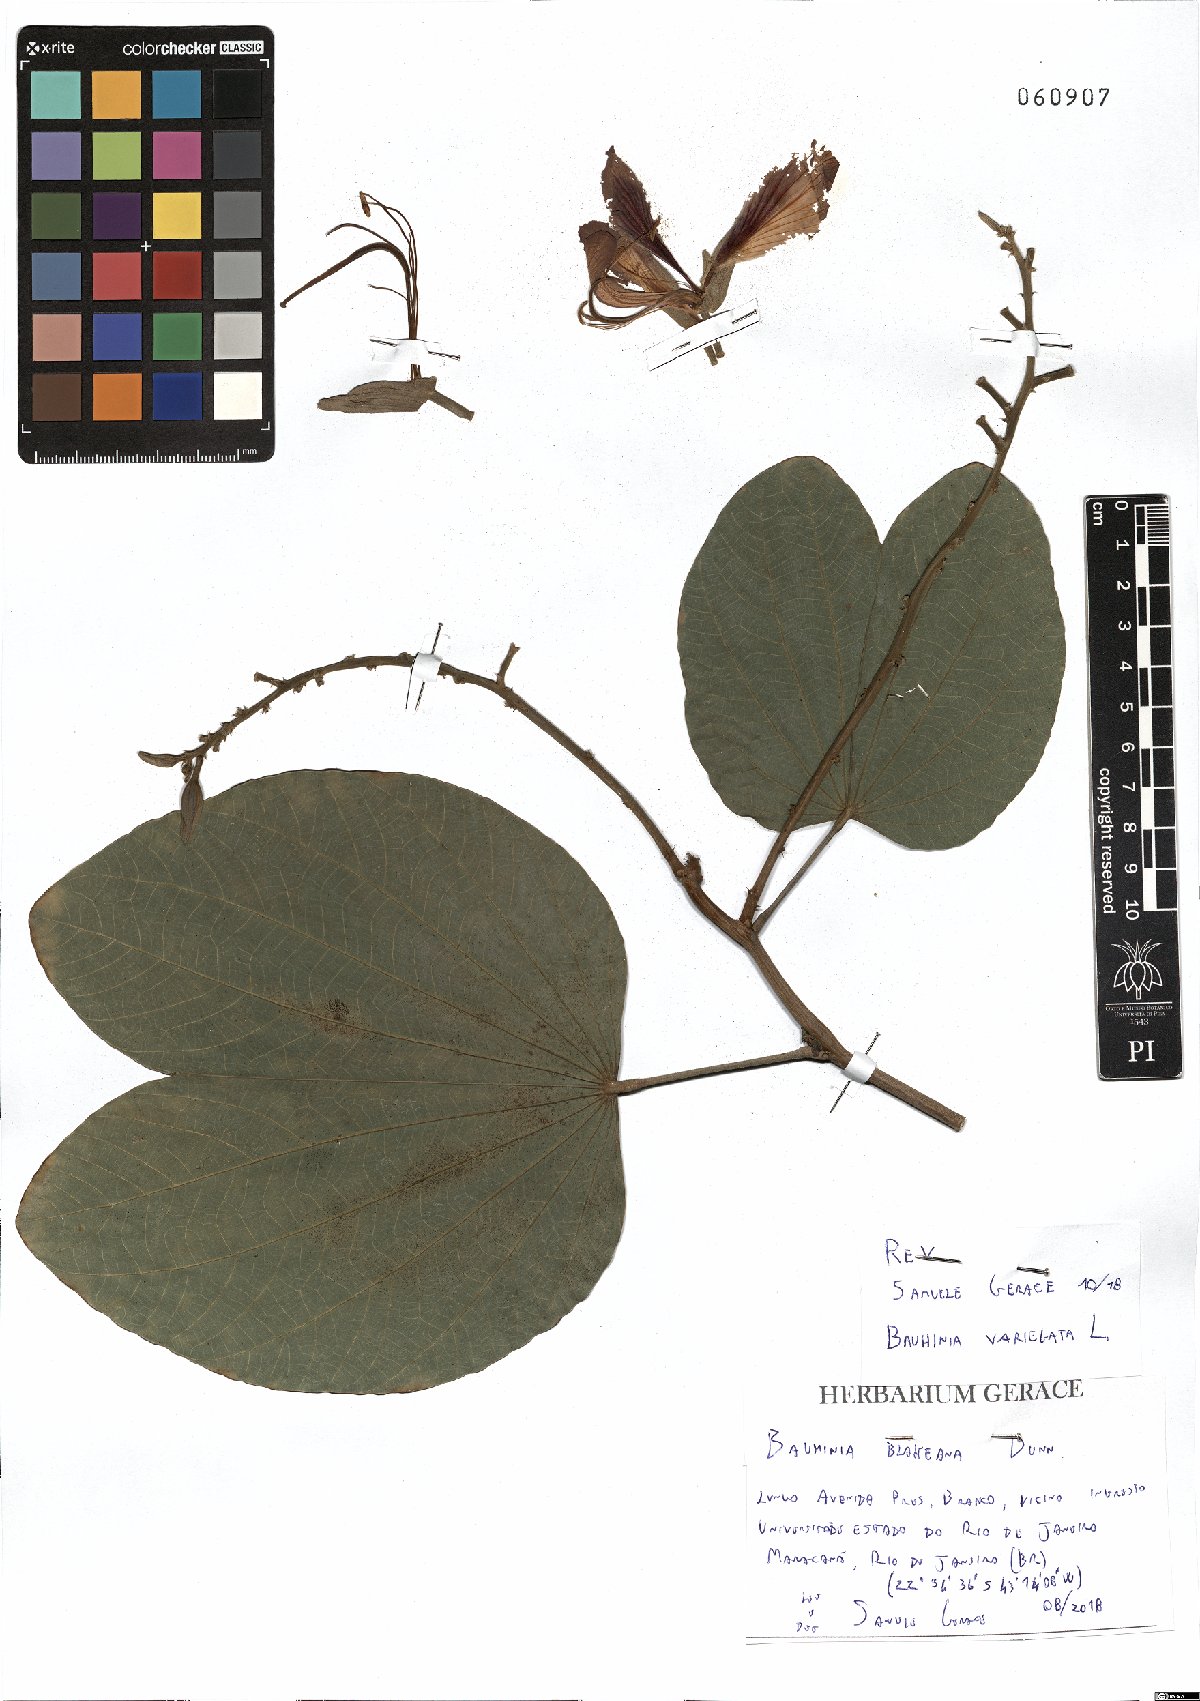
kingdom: Plantae
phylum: Tracheophyta
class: Magnoliopsida
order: Fabales
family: Fabaceae
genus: Bauhinia
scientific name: Bauhinia variegata
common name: Mountain ebony
